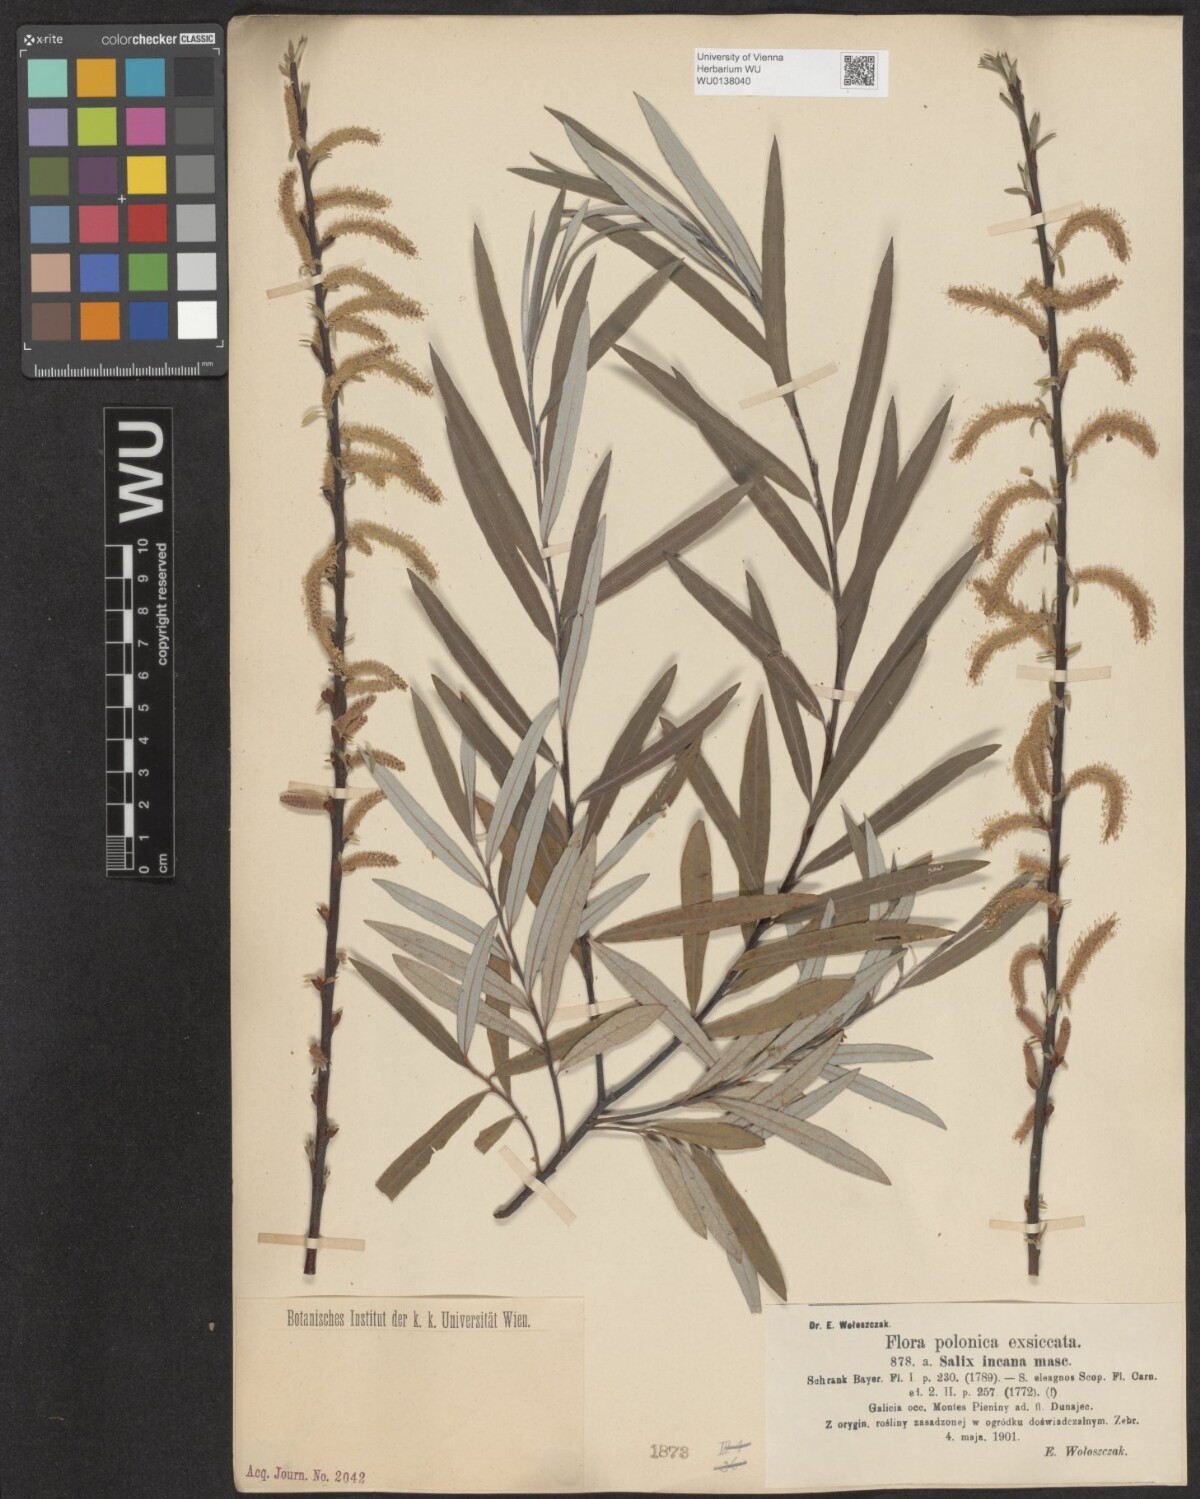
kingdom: Plantae
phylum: Tracheophyta
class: Magnoliopsida
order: Malpighiales
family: Salicaceae
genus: Salix
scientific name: Salix eleagnos
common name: Elaeagnus willow
